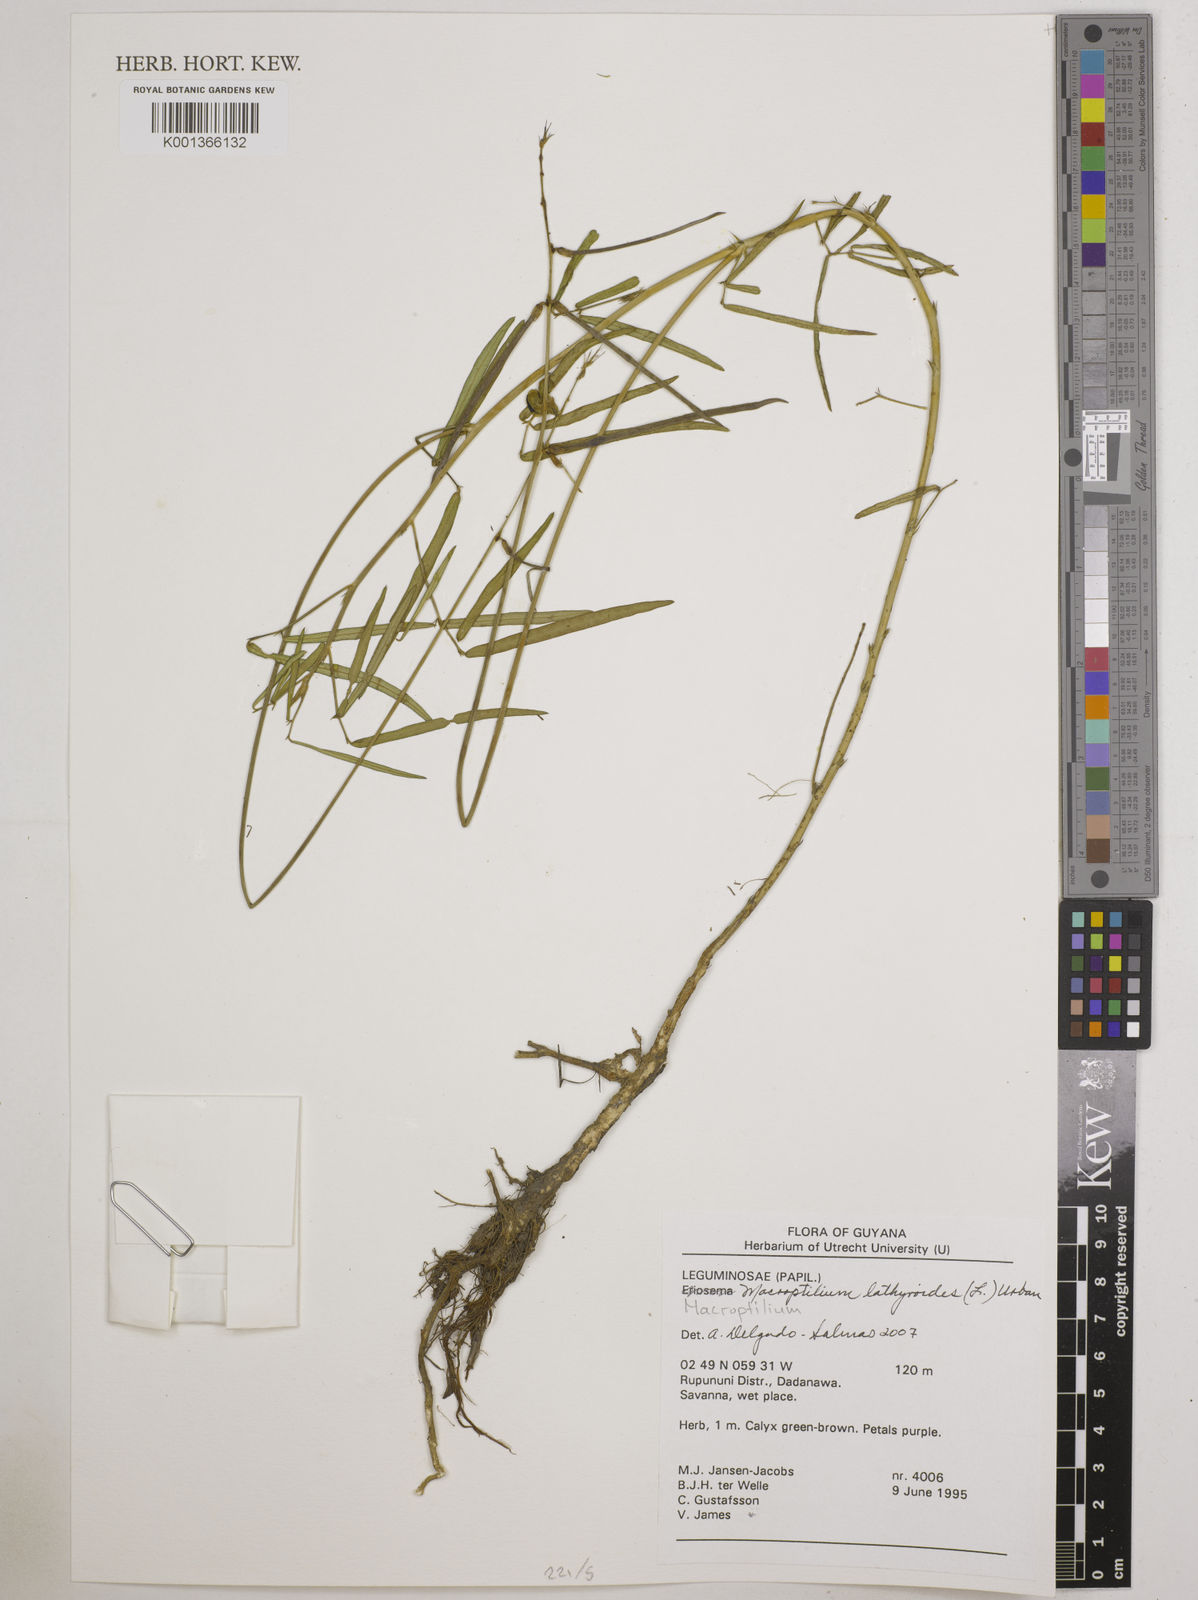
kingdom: Plantae
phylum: Tracheophyta
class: Magnoliopsida
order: Fabales
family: Fabaceae
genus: Macroptilium
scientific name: Macroptilium lathyroides
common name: Wild bushbean
